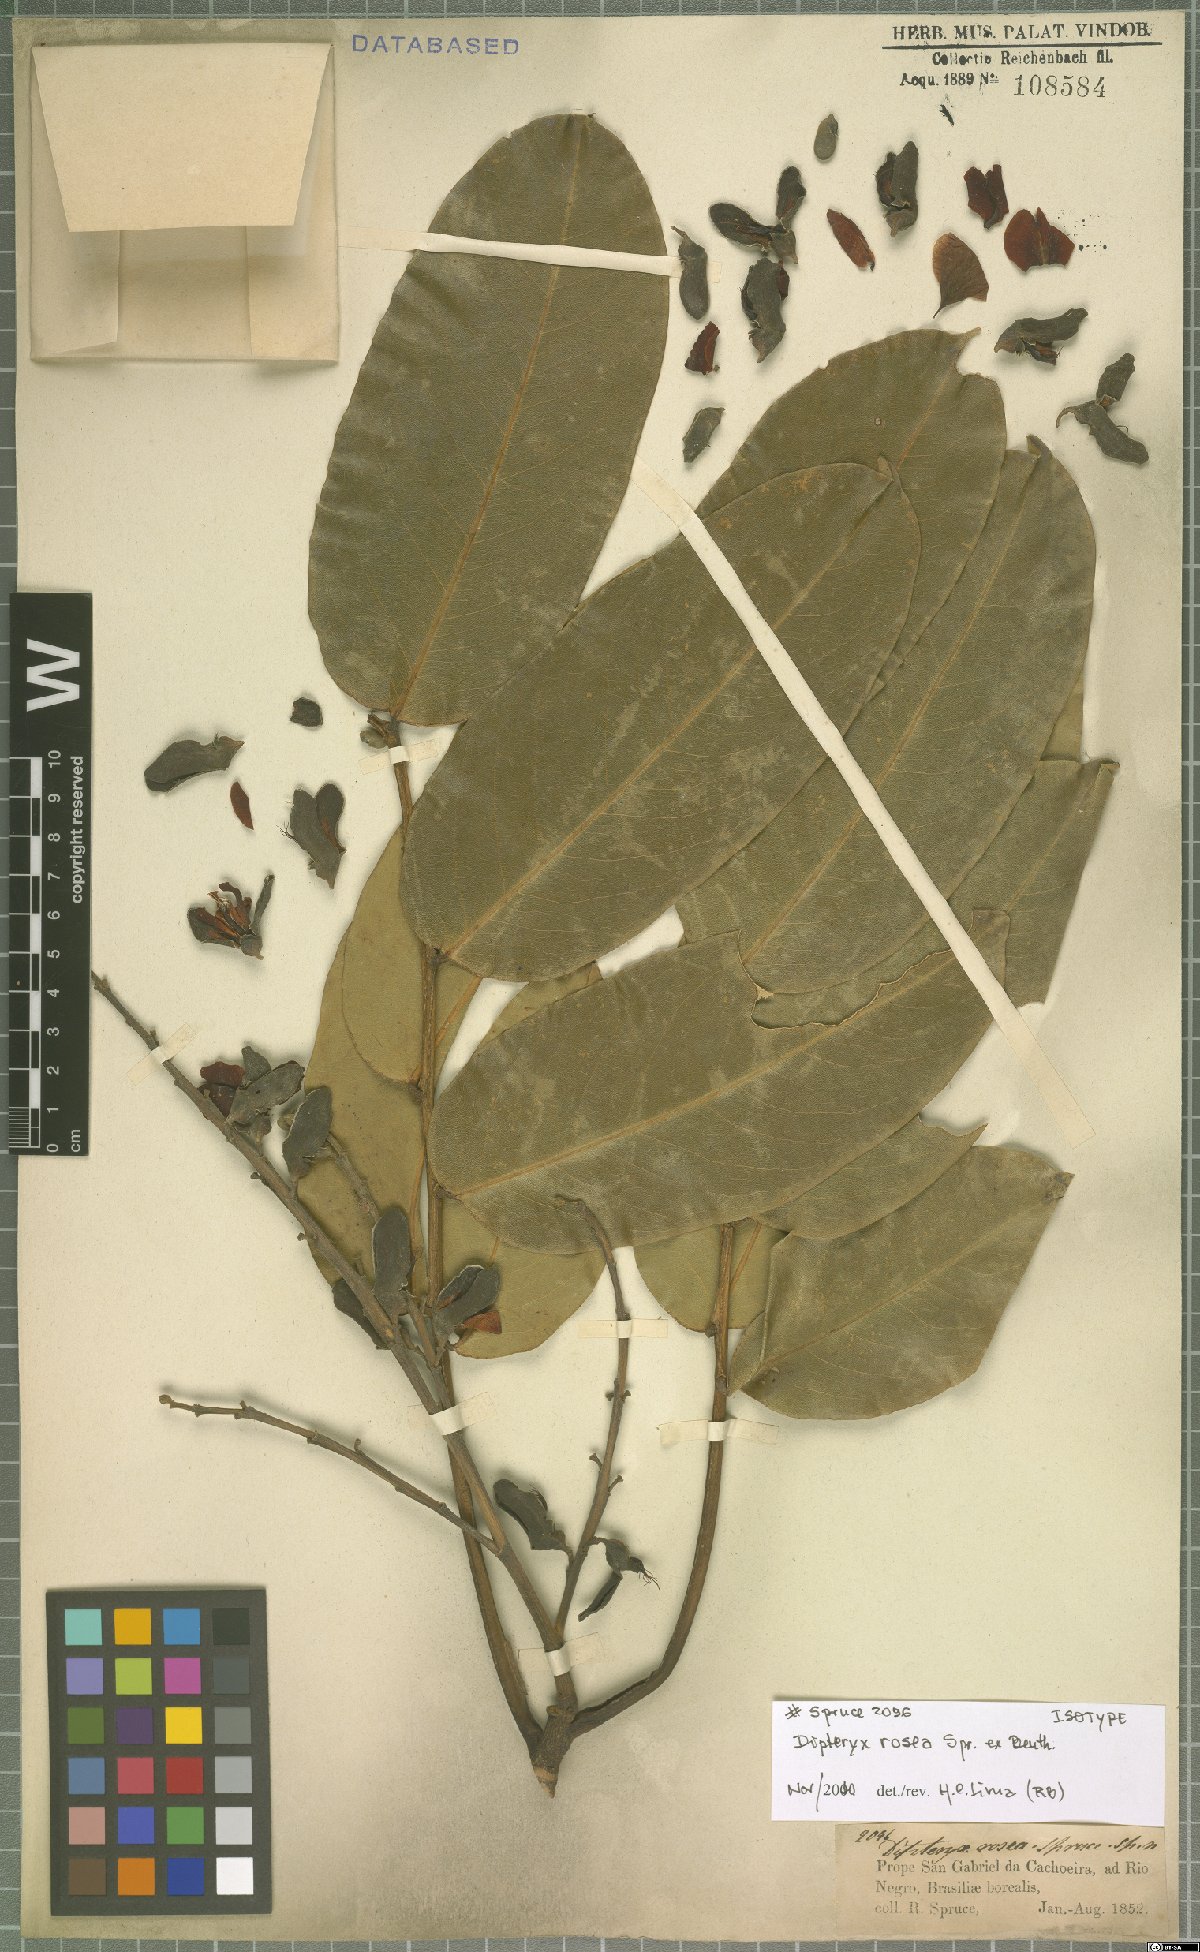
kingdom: Plantae
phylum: Tracheophyta
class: Magnoliopsida
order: Fabales
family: Fabaceae
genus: Dipteryx
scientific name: Dipteryx rosea
